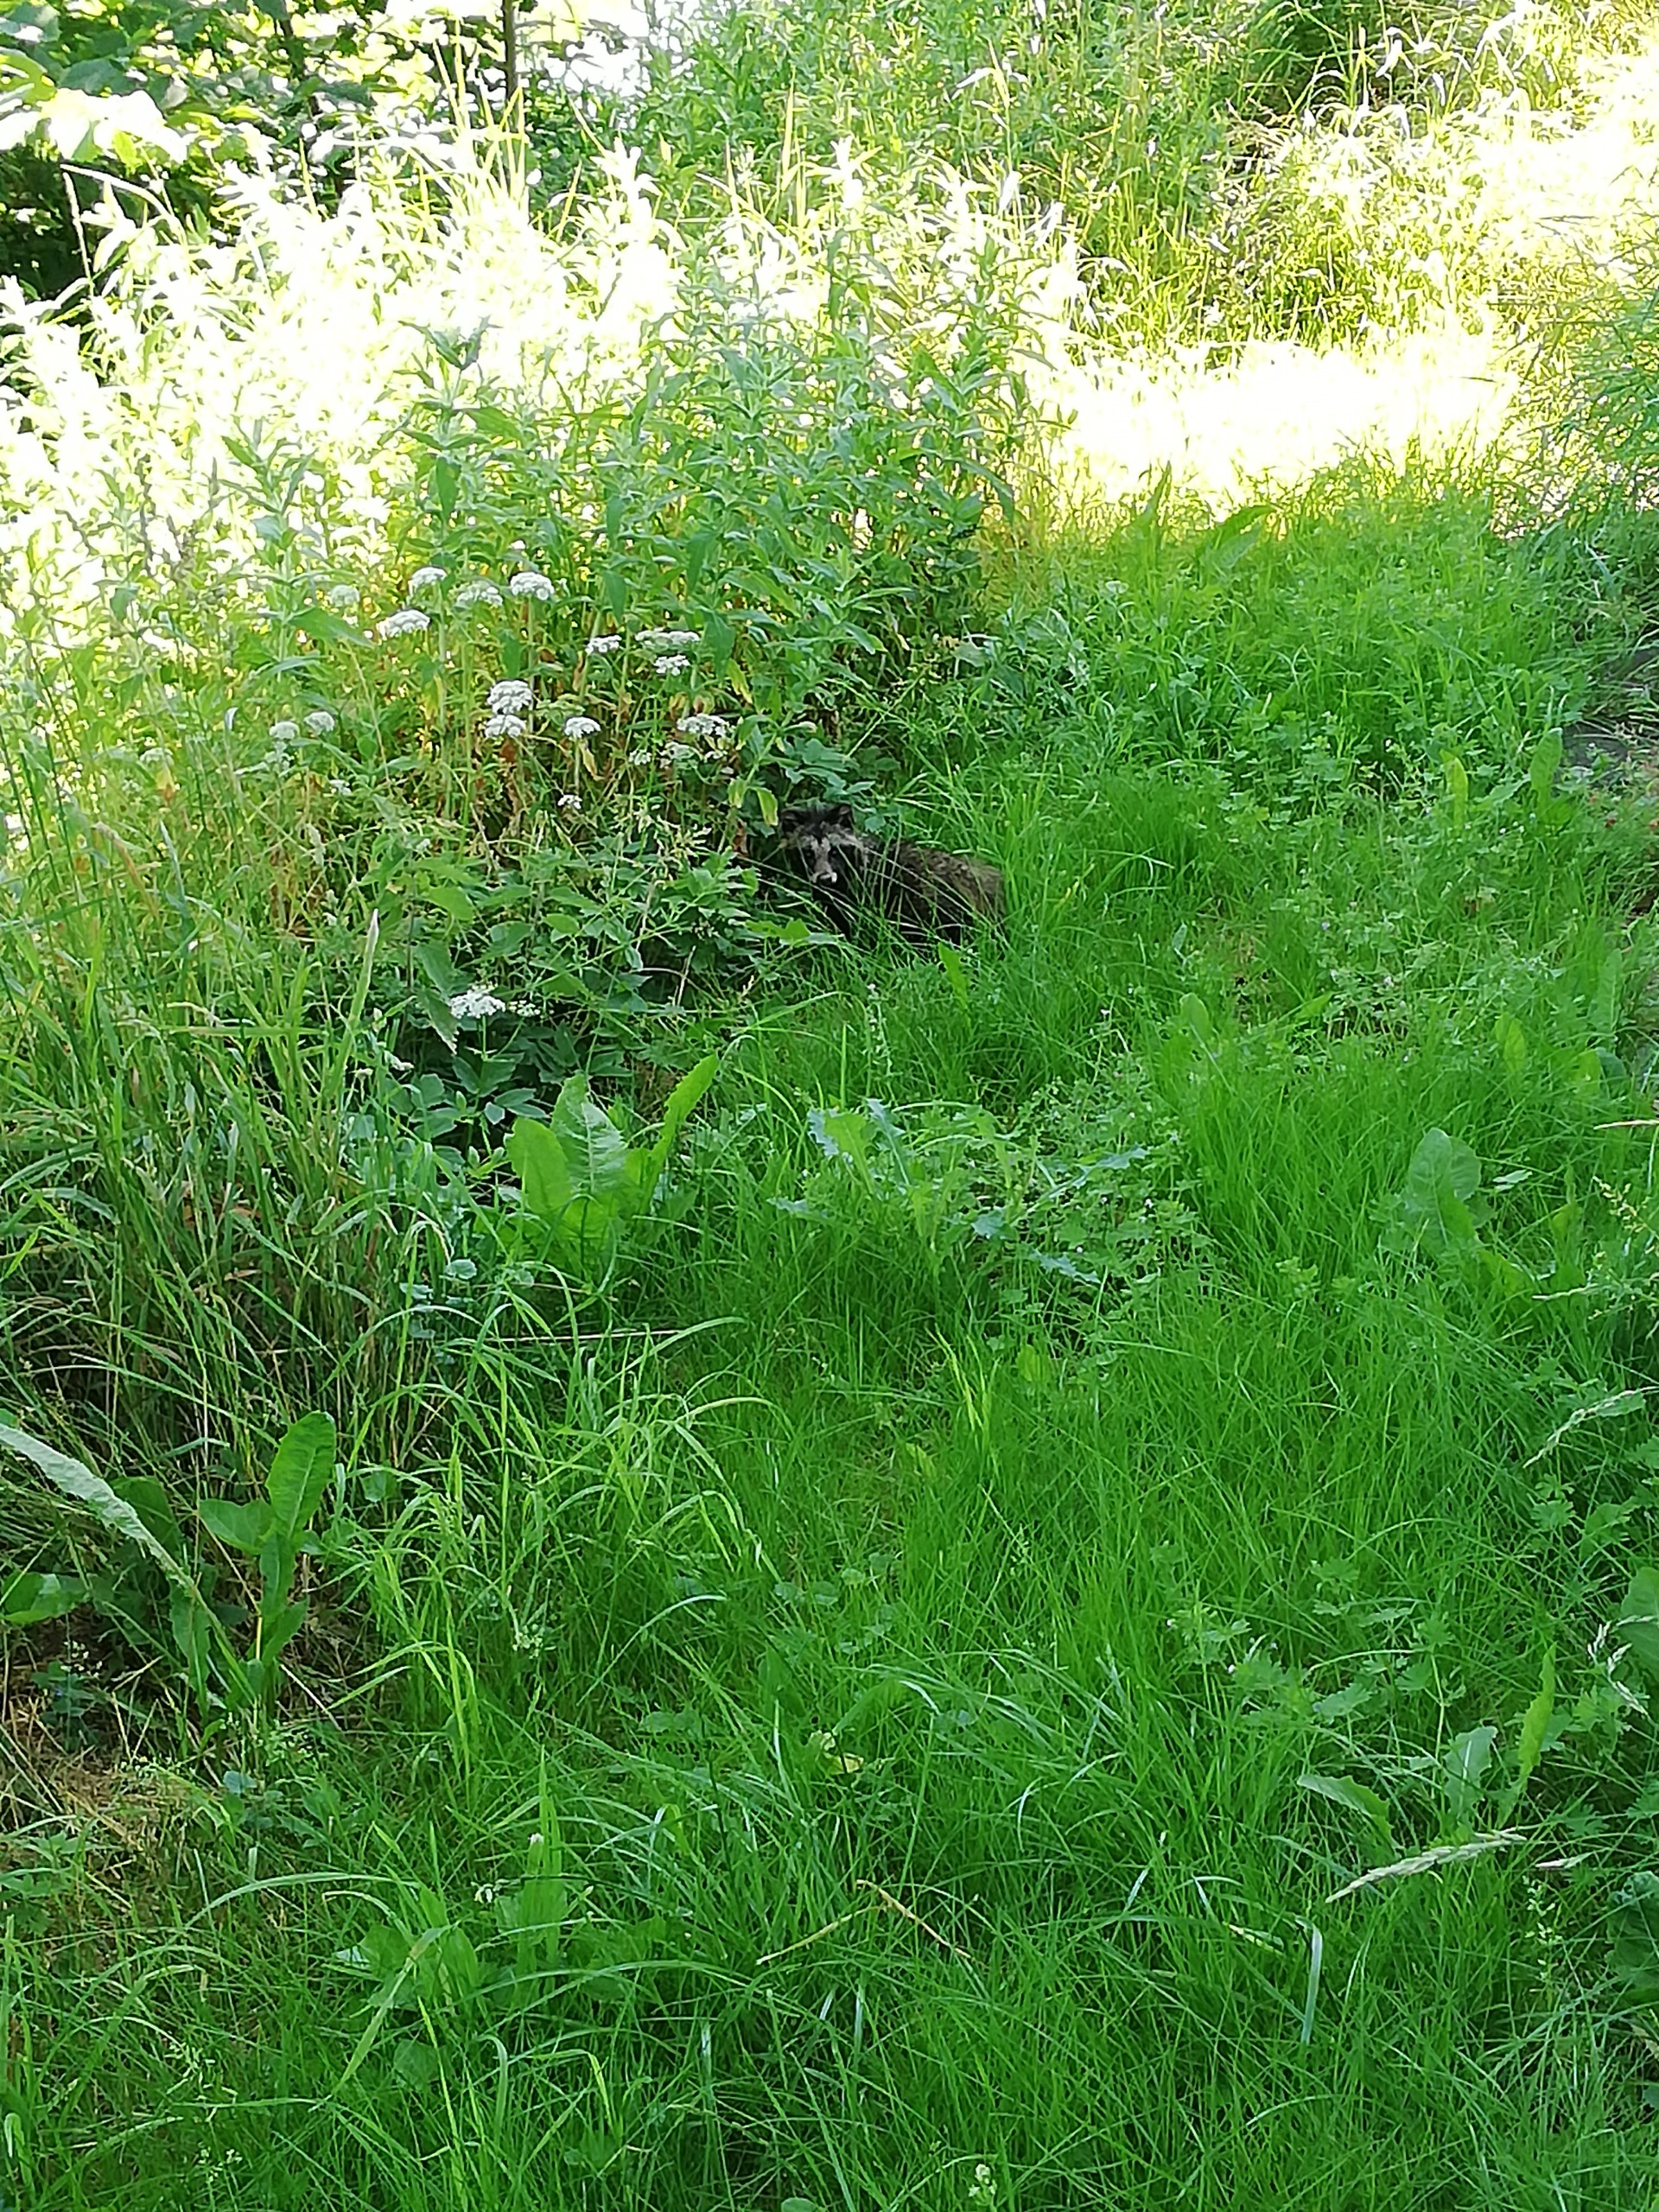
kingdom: Animalia
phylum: Chordata
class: Mammalia
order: Carnivora
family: Canidae
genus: Nyctereutes
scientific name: Nyctereutes procyonoides
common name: Mårhund
